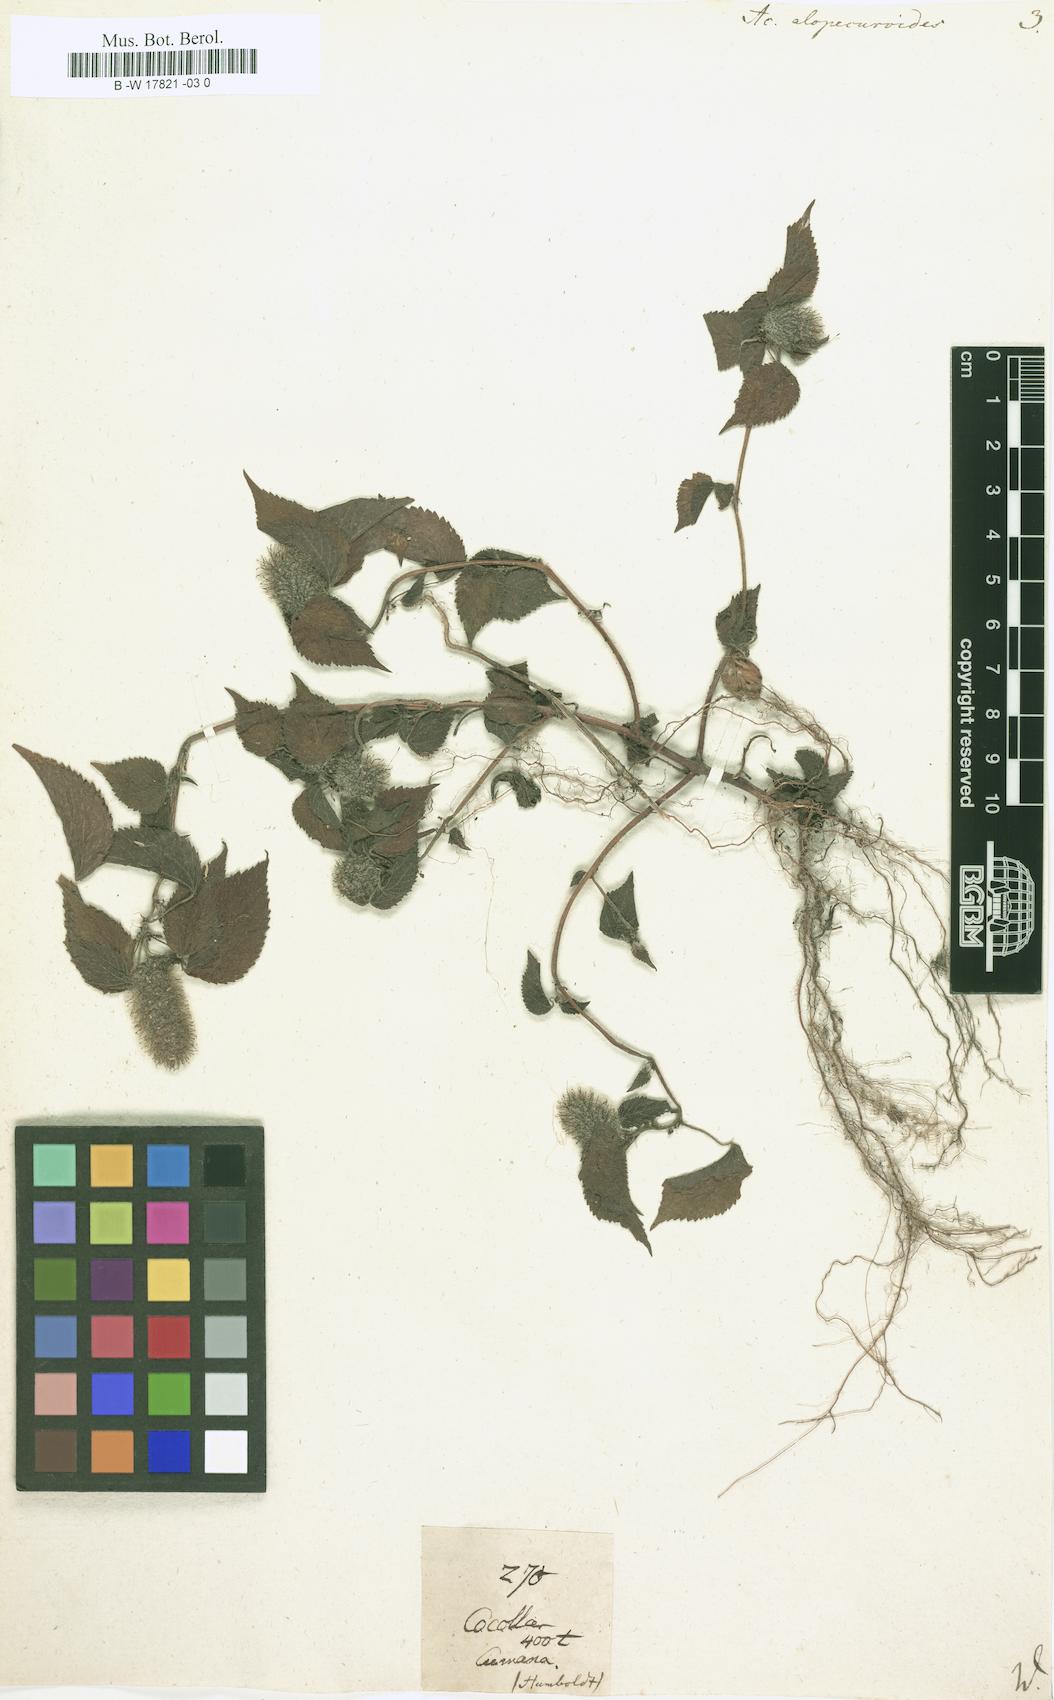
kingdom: Plantae
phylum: Tracheophyta
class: Magnoliopsida
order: Malpighiales
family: Euphorbiaceae
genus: Acalypha
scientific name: Acalypha alopecuroidea
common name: Foxtail copperleaf
